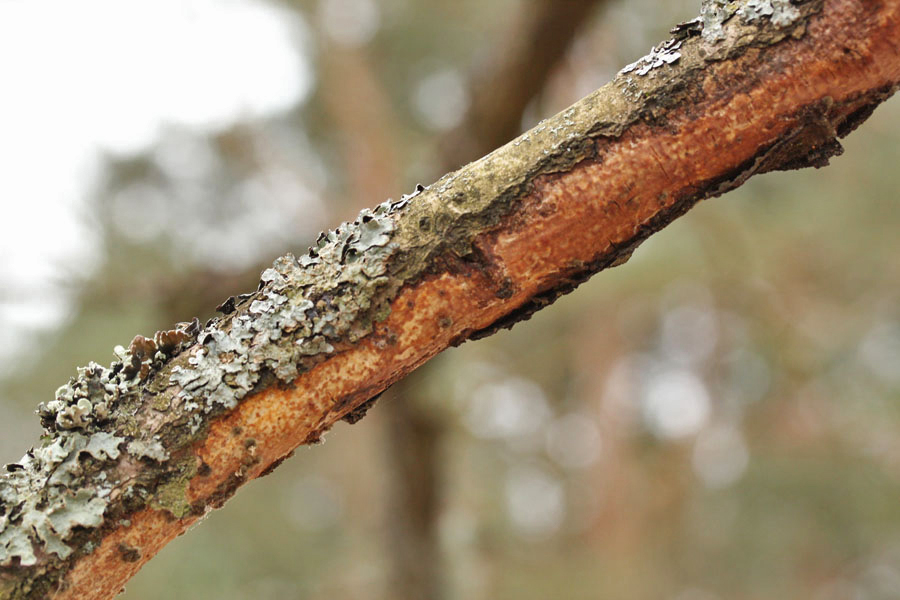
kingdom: Fungi
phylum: Basidiomycota
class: Agaricomycetes
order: Corticiales
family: Vuilleminiaceae
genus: Vuilleminia
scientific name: Vuilleminia comedens
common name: almindelig barksprænger
